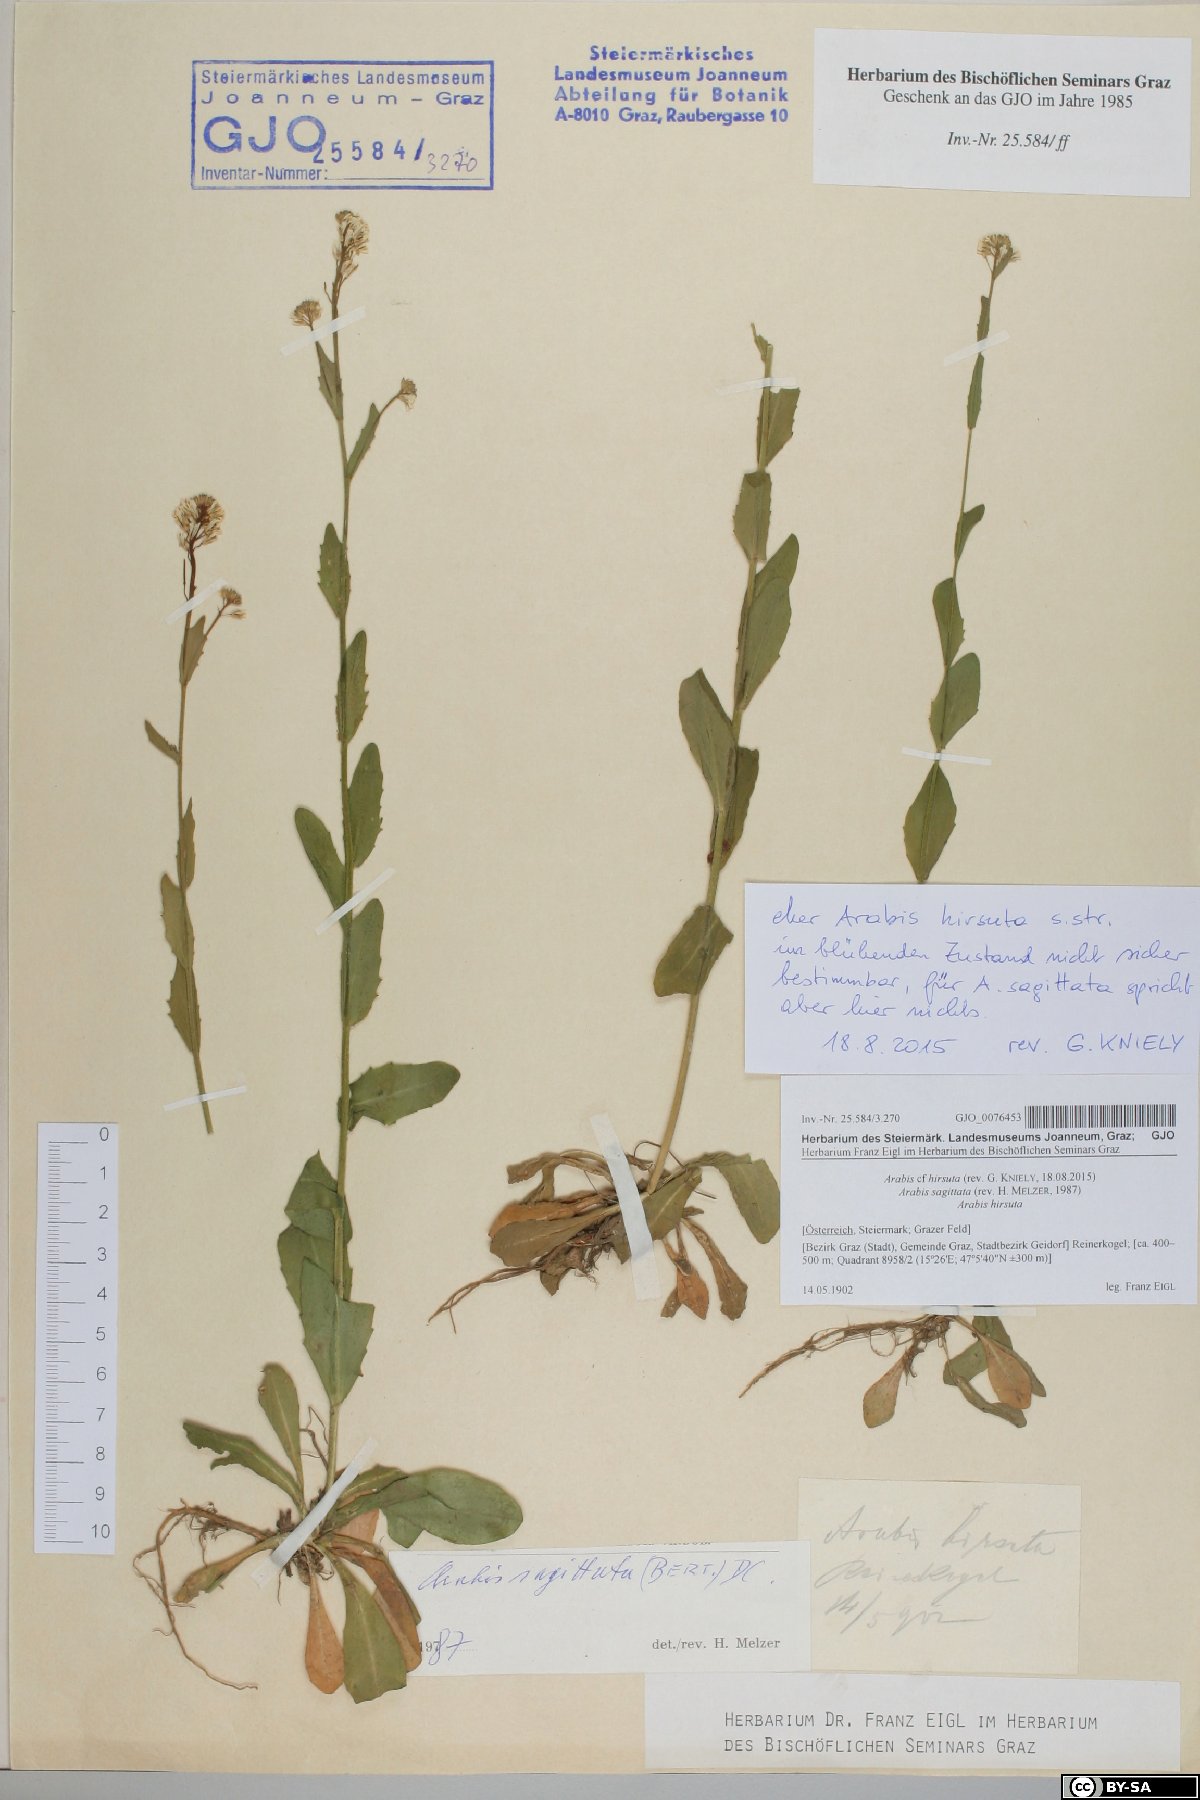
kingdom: Plantae
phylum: Tracheophyta
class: Magnoliopsida
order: Brassicales
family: Brassicaceae
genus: Arabis
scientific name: Arabis hirsuta
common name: Hairy rock-cress
